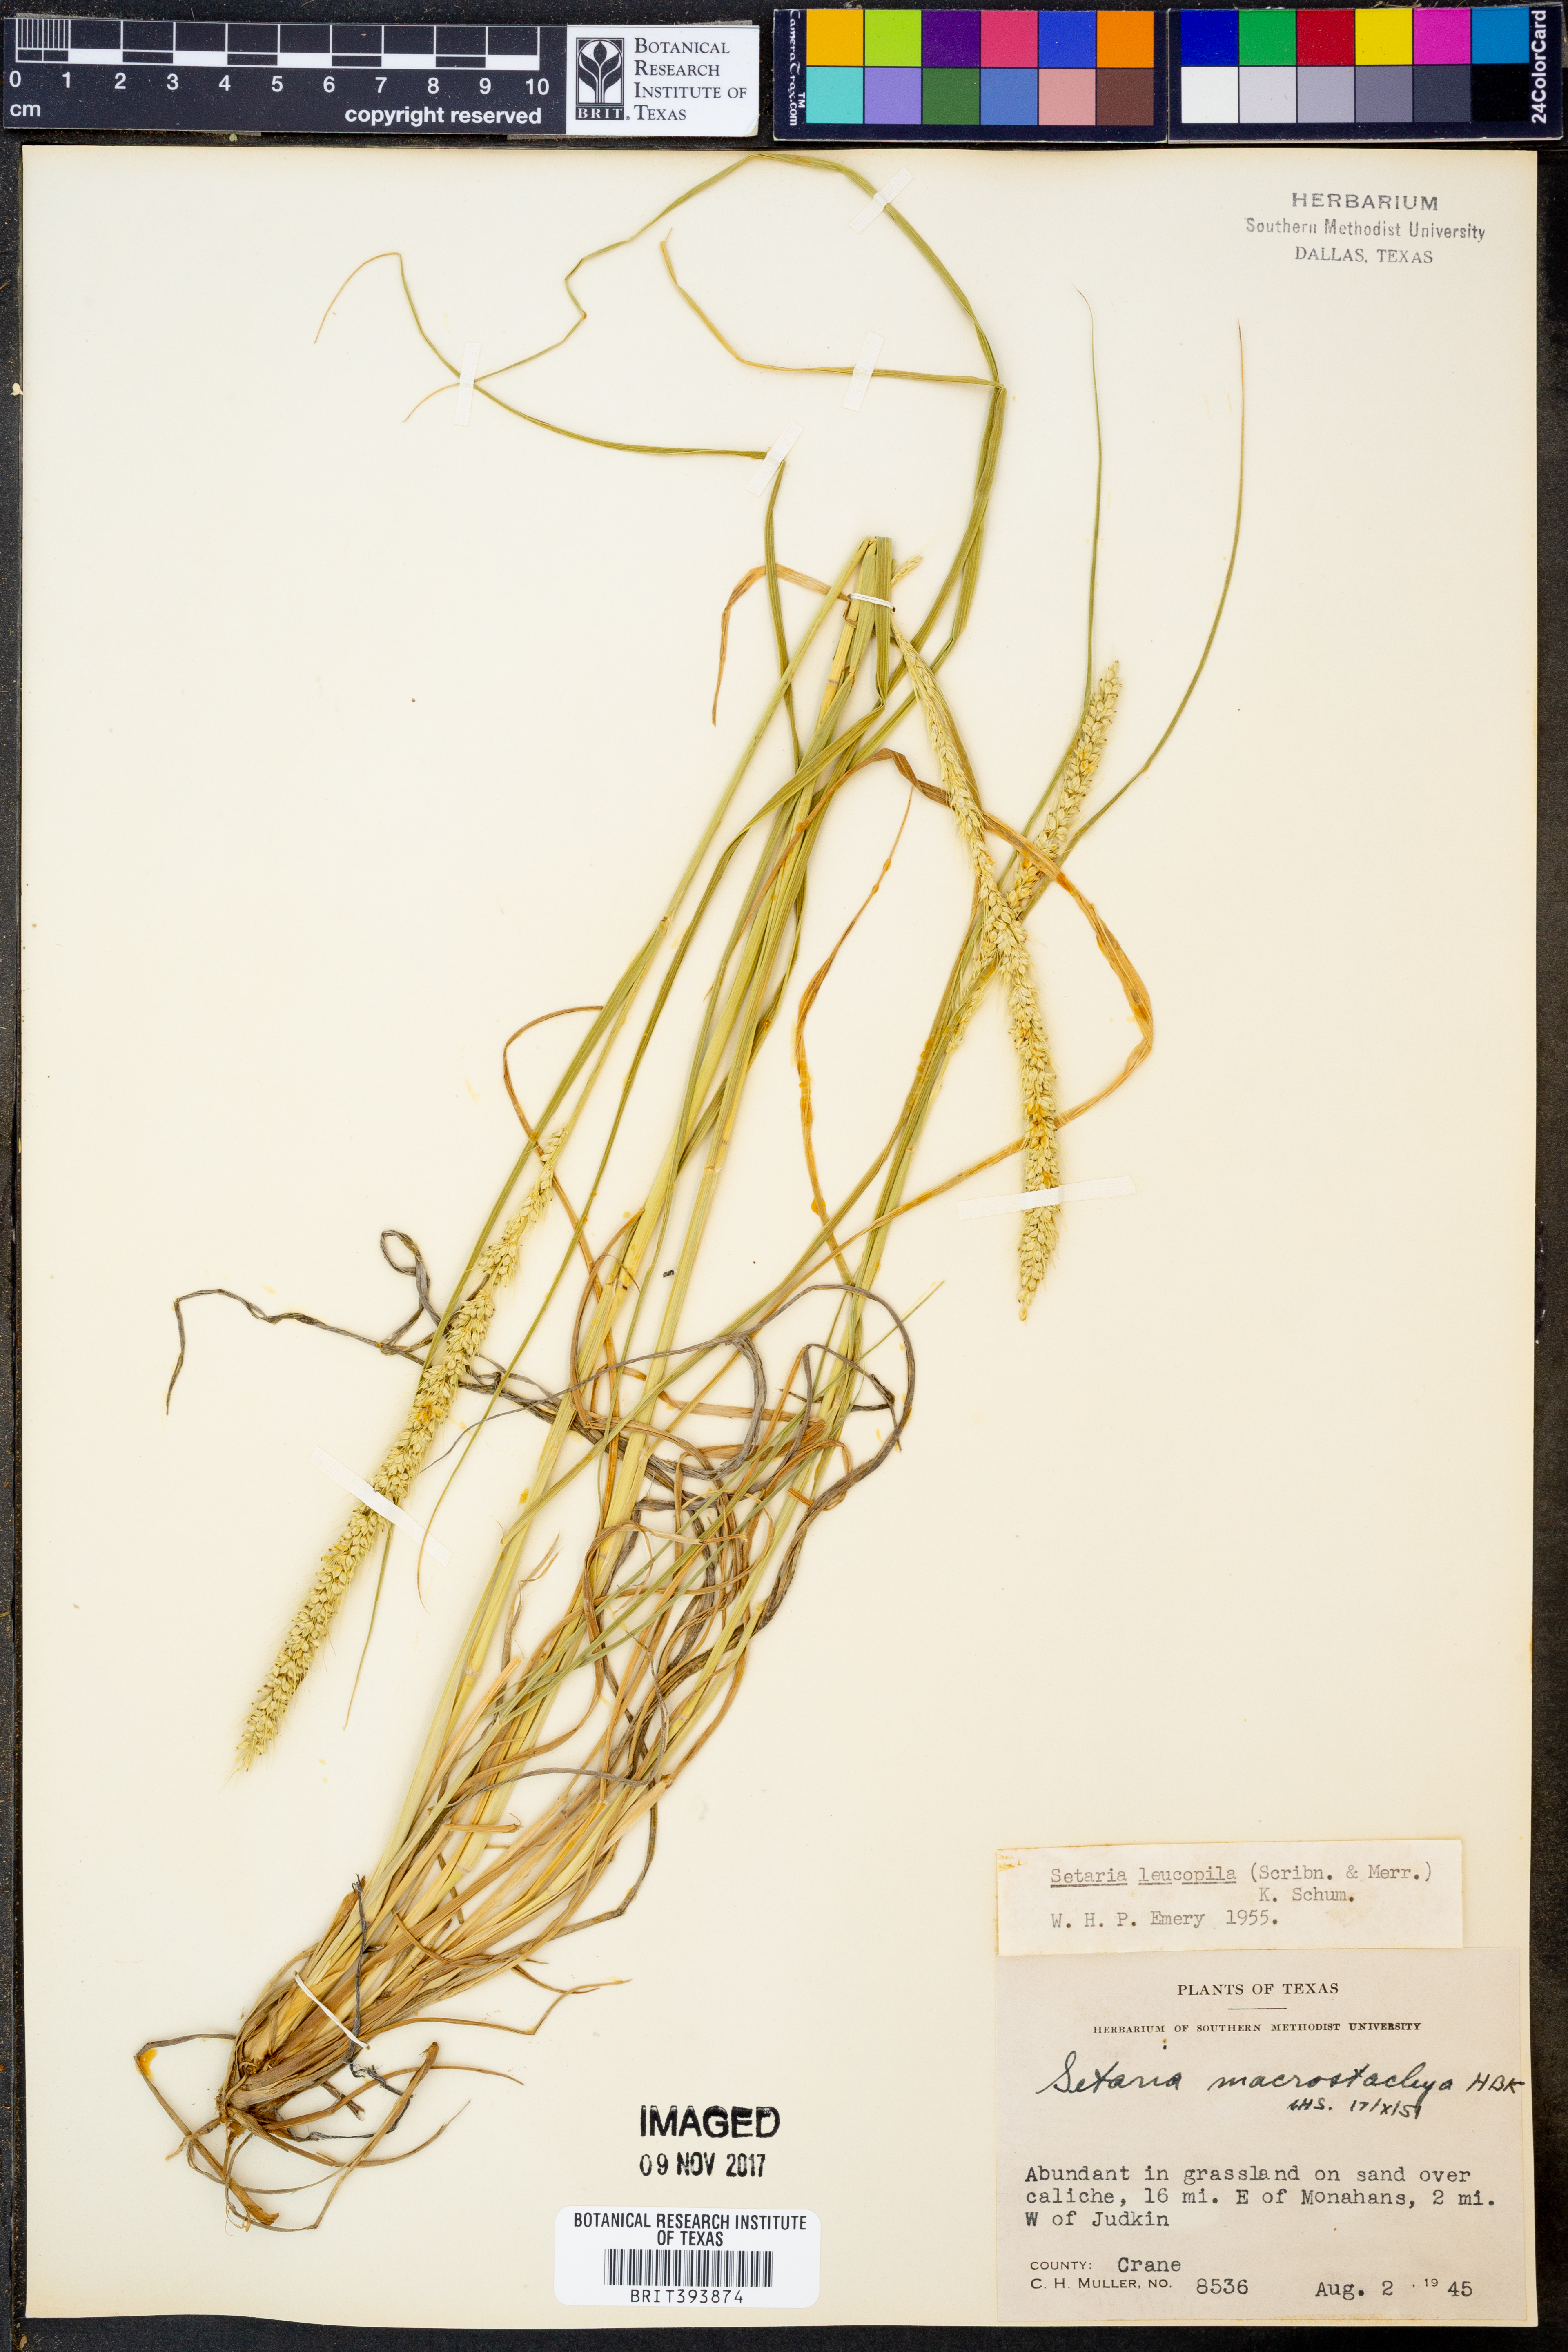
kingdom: Plantae
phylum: Tracheophyta
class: Liliopsida
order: Poales
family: Poaceae
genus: Setaria
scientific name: Setaria leucopila
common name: Plains bristle grass
